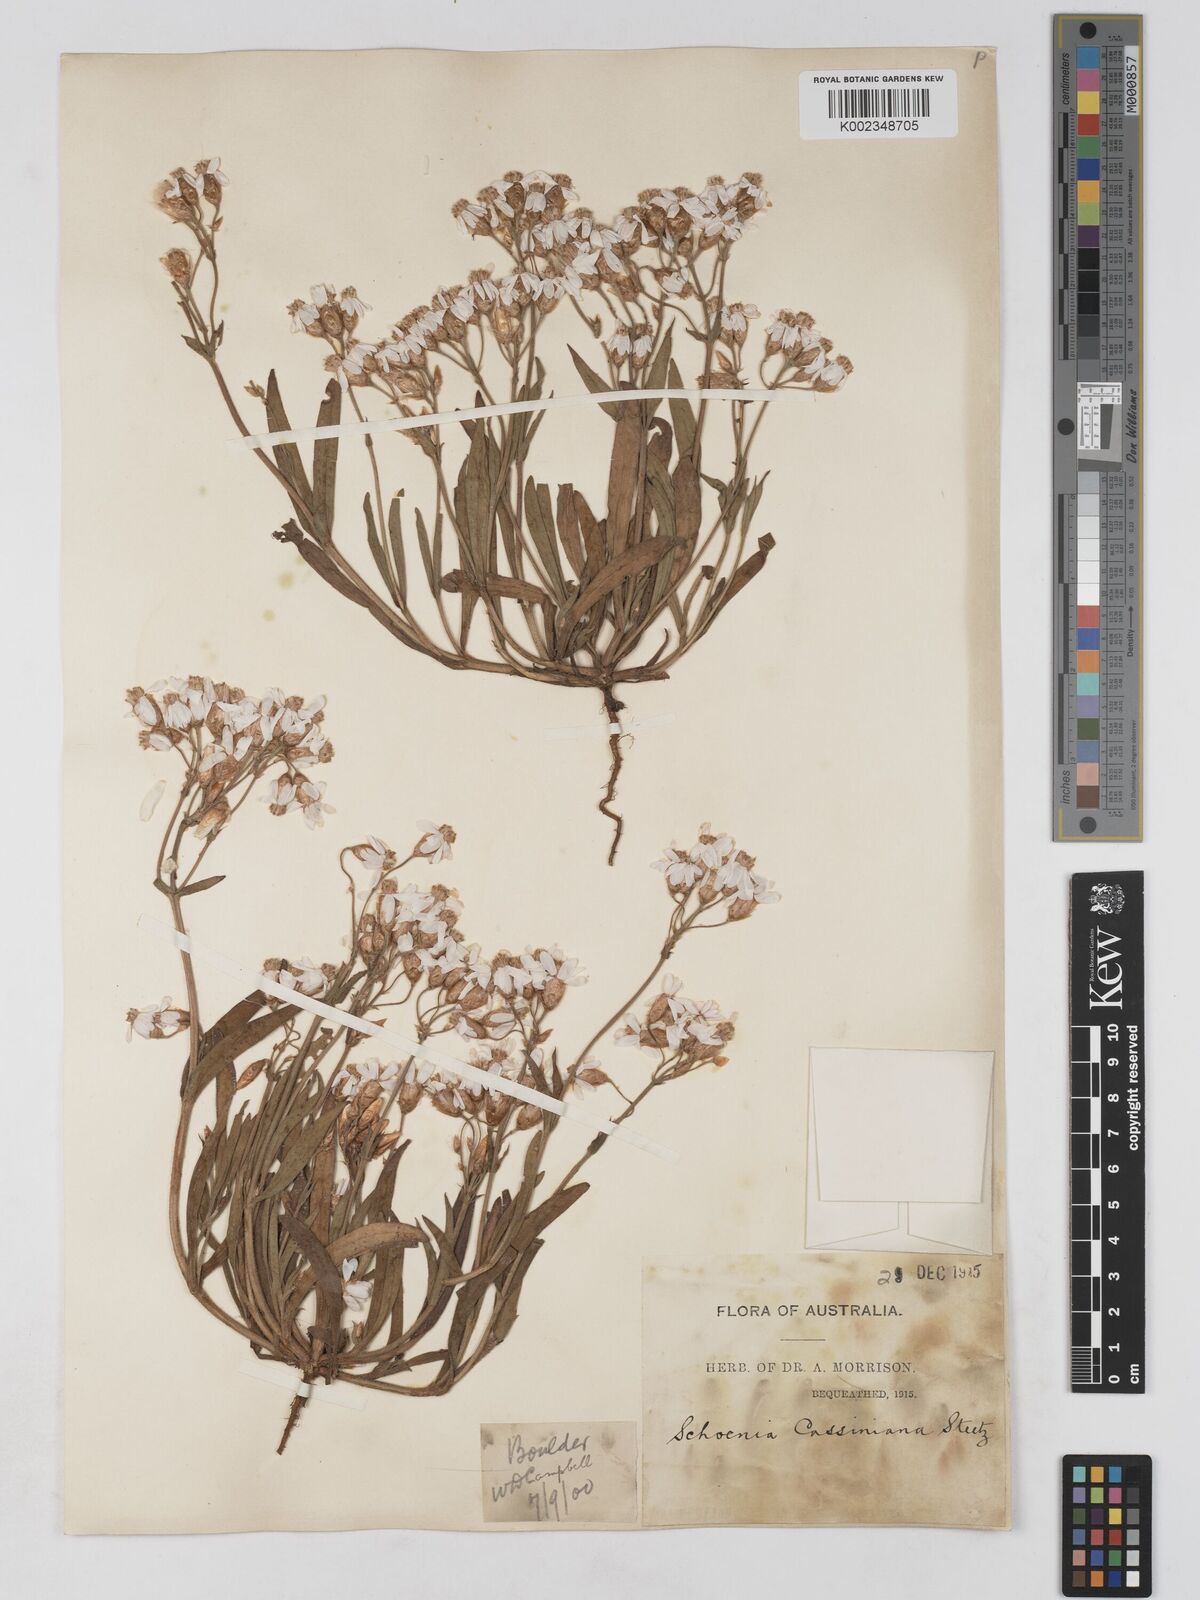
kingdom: Plantae
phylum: Tracheophyta
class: Magnoliopsida
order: Asterales
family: Asteraceae
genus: Schoenia
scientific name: Schoenia cassiniana
